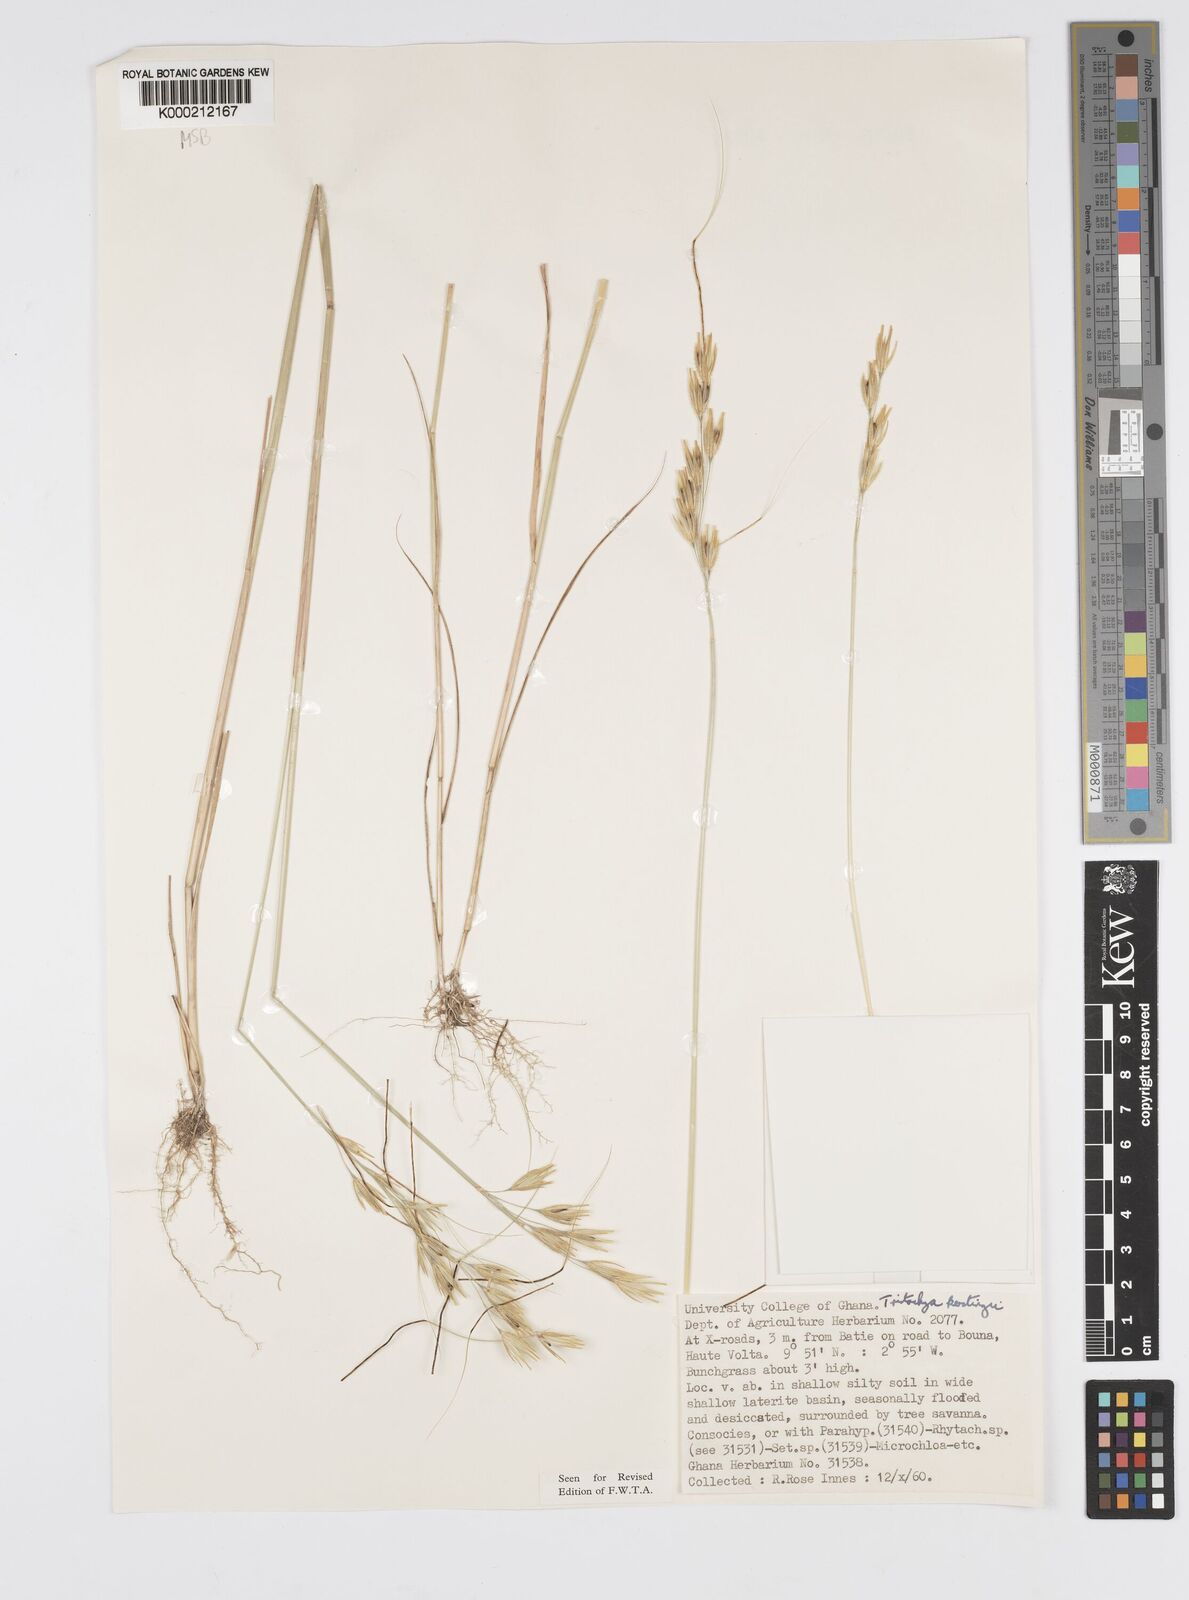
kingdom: Plantae
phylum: Tracheophyta
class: Liliopsida
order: Poales
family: Poaceae
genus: Loudetiopsis
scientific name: Loudetiopsis kerstingii
